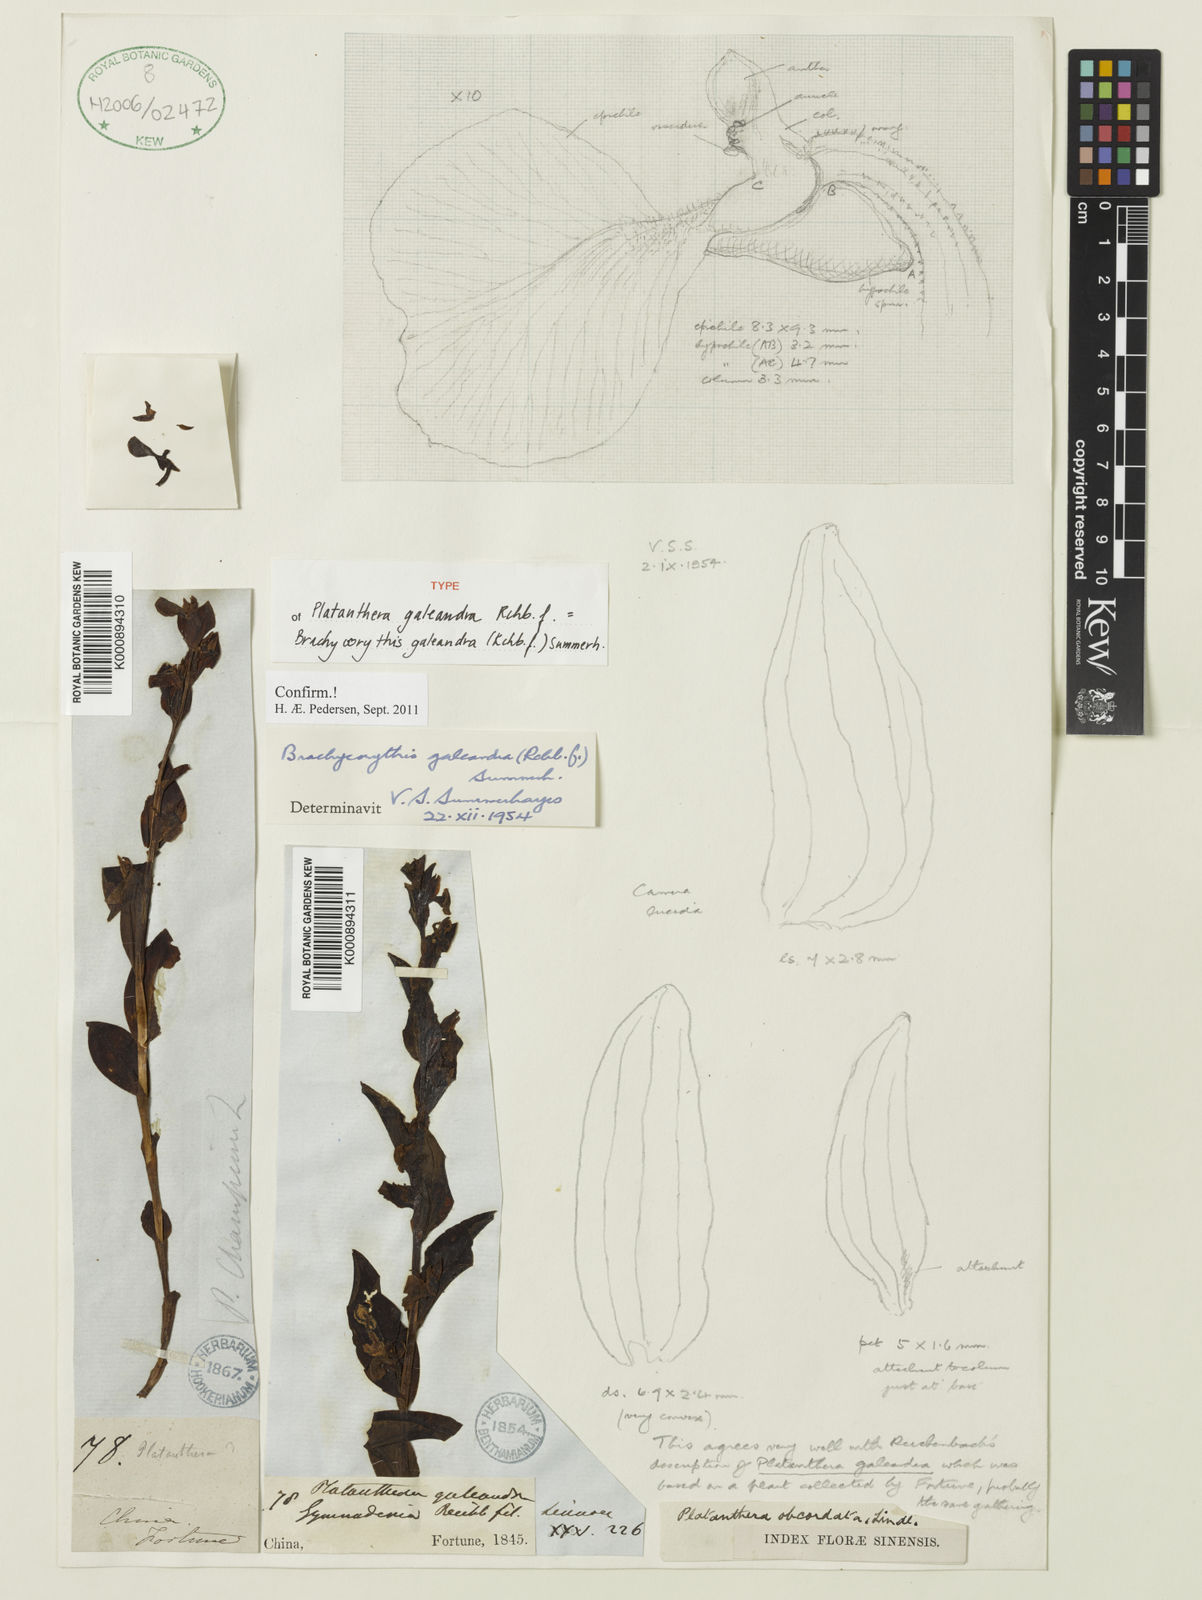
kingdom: Plantae
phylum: Tracheophyta
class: Liliopsida
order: Asparagales
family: Orchidaceae
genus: Brachycorythis
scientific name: Brachycorythis galeandra
